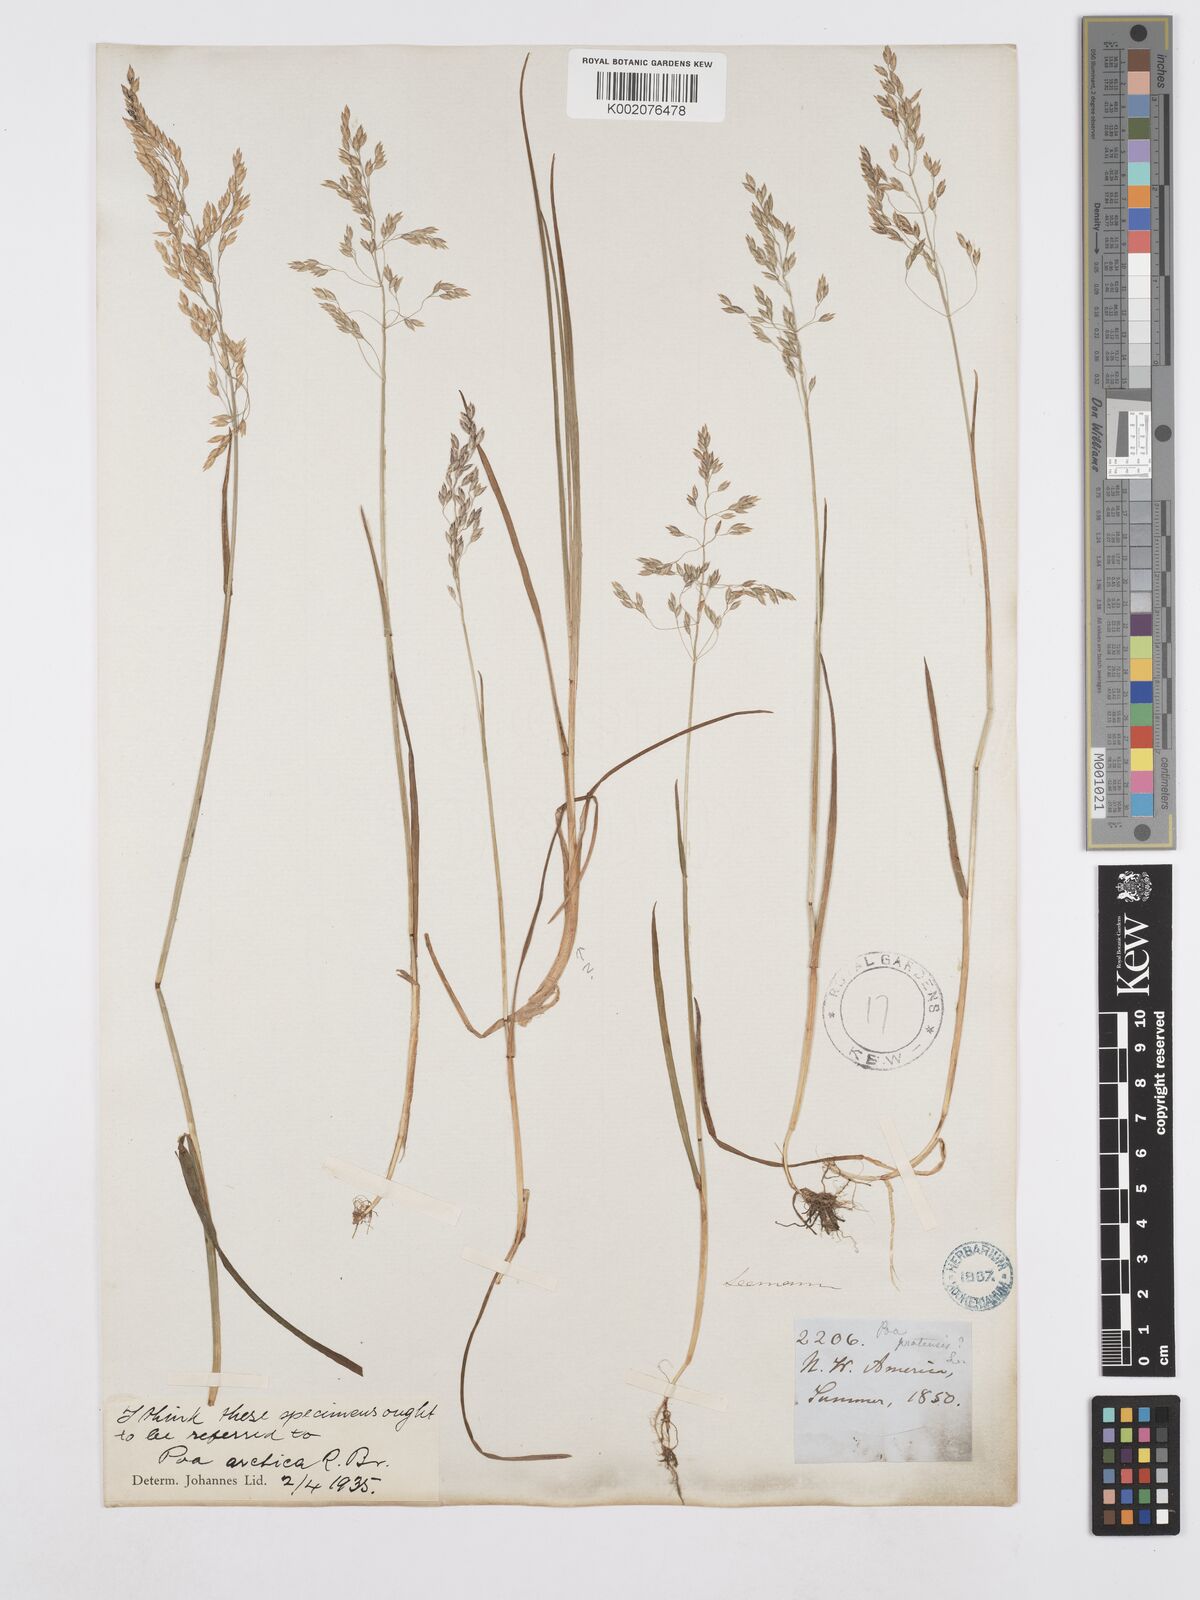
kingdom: Plantae
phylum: Tracheophyta
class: Liliopsida
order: Poales
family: Poaceae
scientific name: Poaceae
